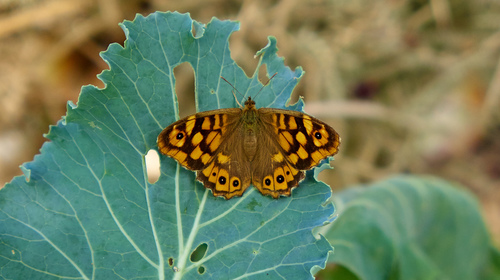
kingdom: Animalia
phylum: Arthropoda
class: Insecta
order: Lepidoptera
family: Nymphalidae
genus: Pararge
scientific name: Pararge aegeria
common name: Speckled wood
